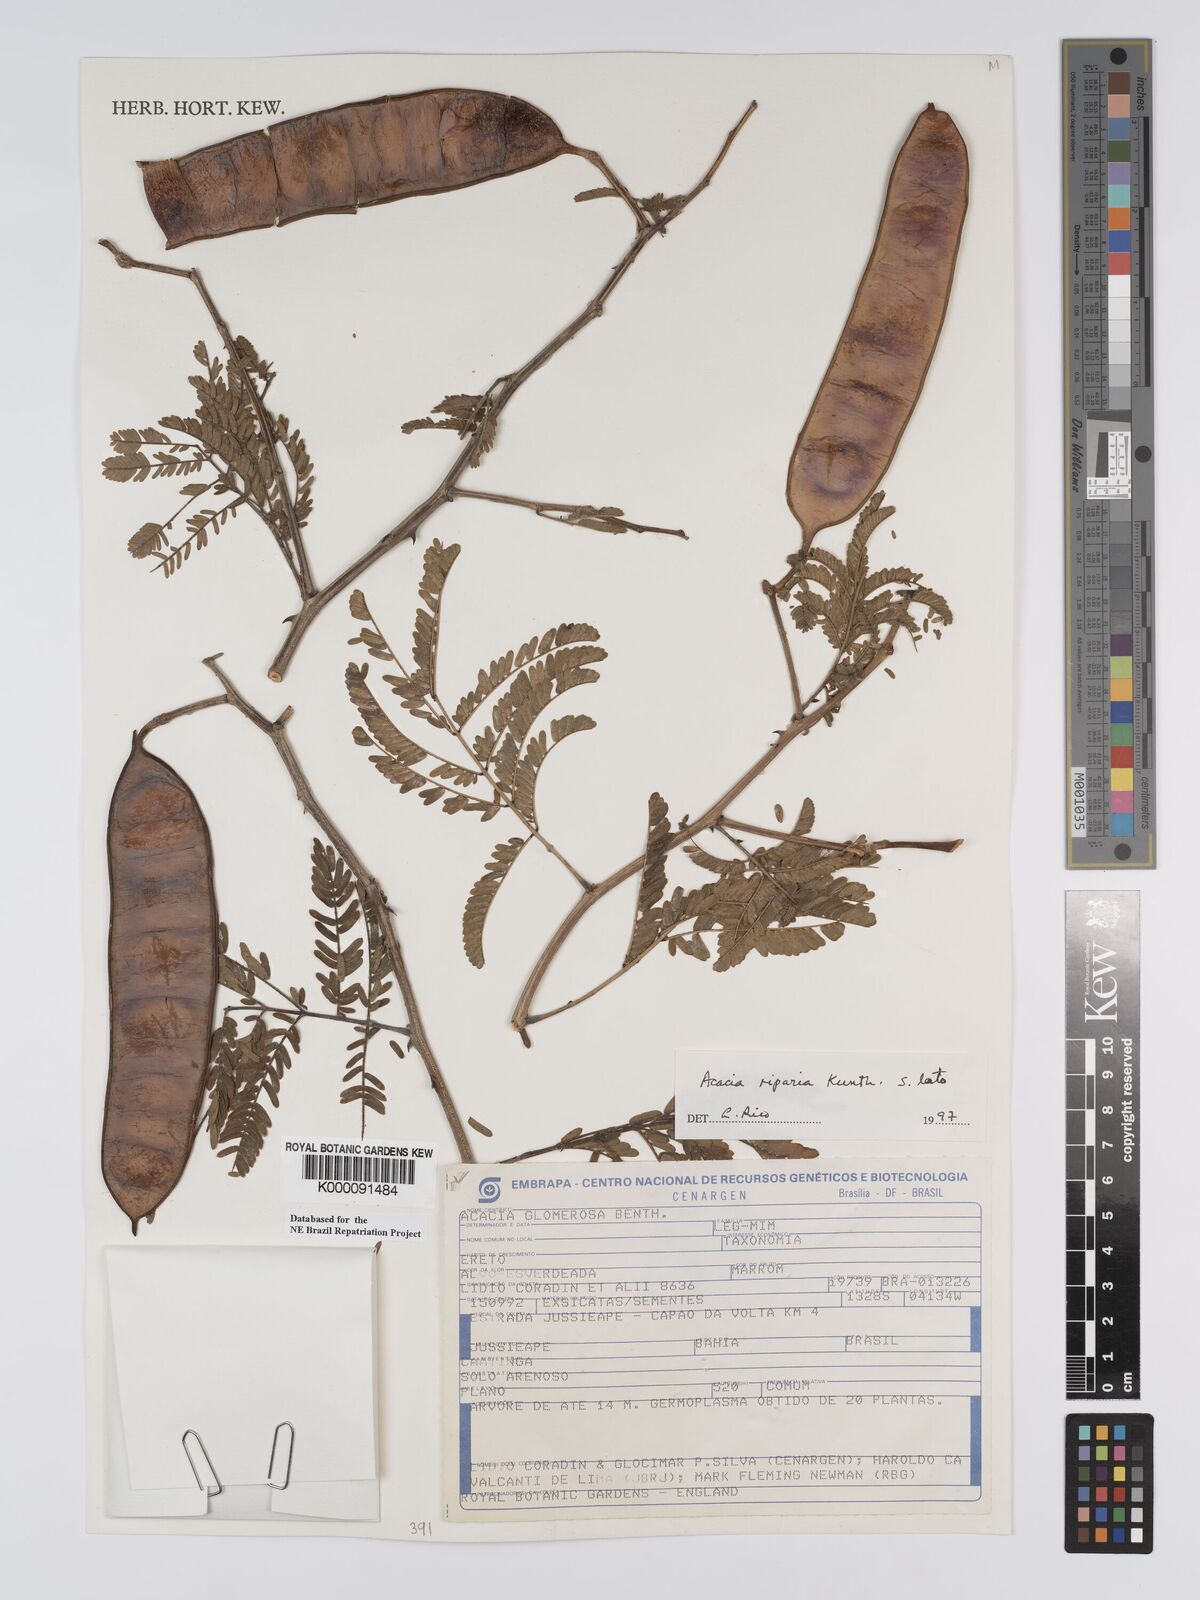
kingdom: Plantae
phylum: Tracheophyta
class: Magnoliopsida
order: Fabales
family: Fabaceae
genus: Senegalia
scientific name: Senegalia riparia
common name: Catch-and-keep
